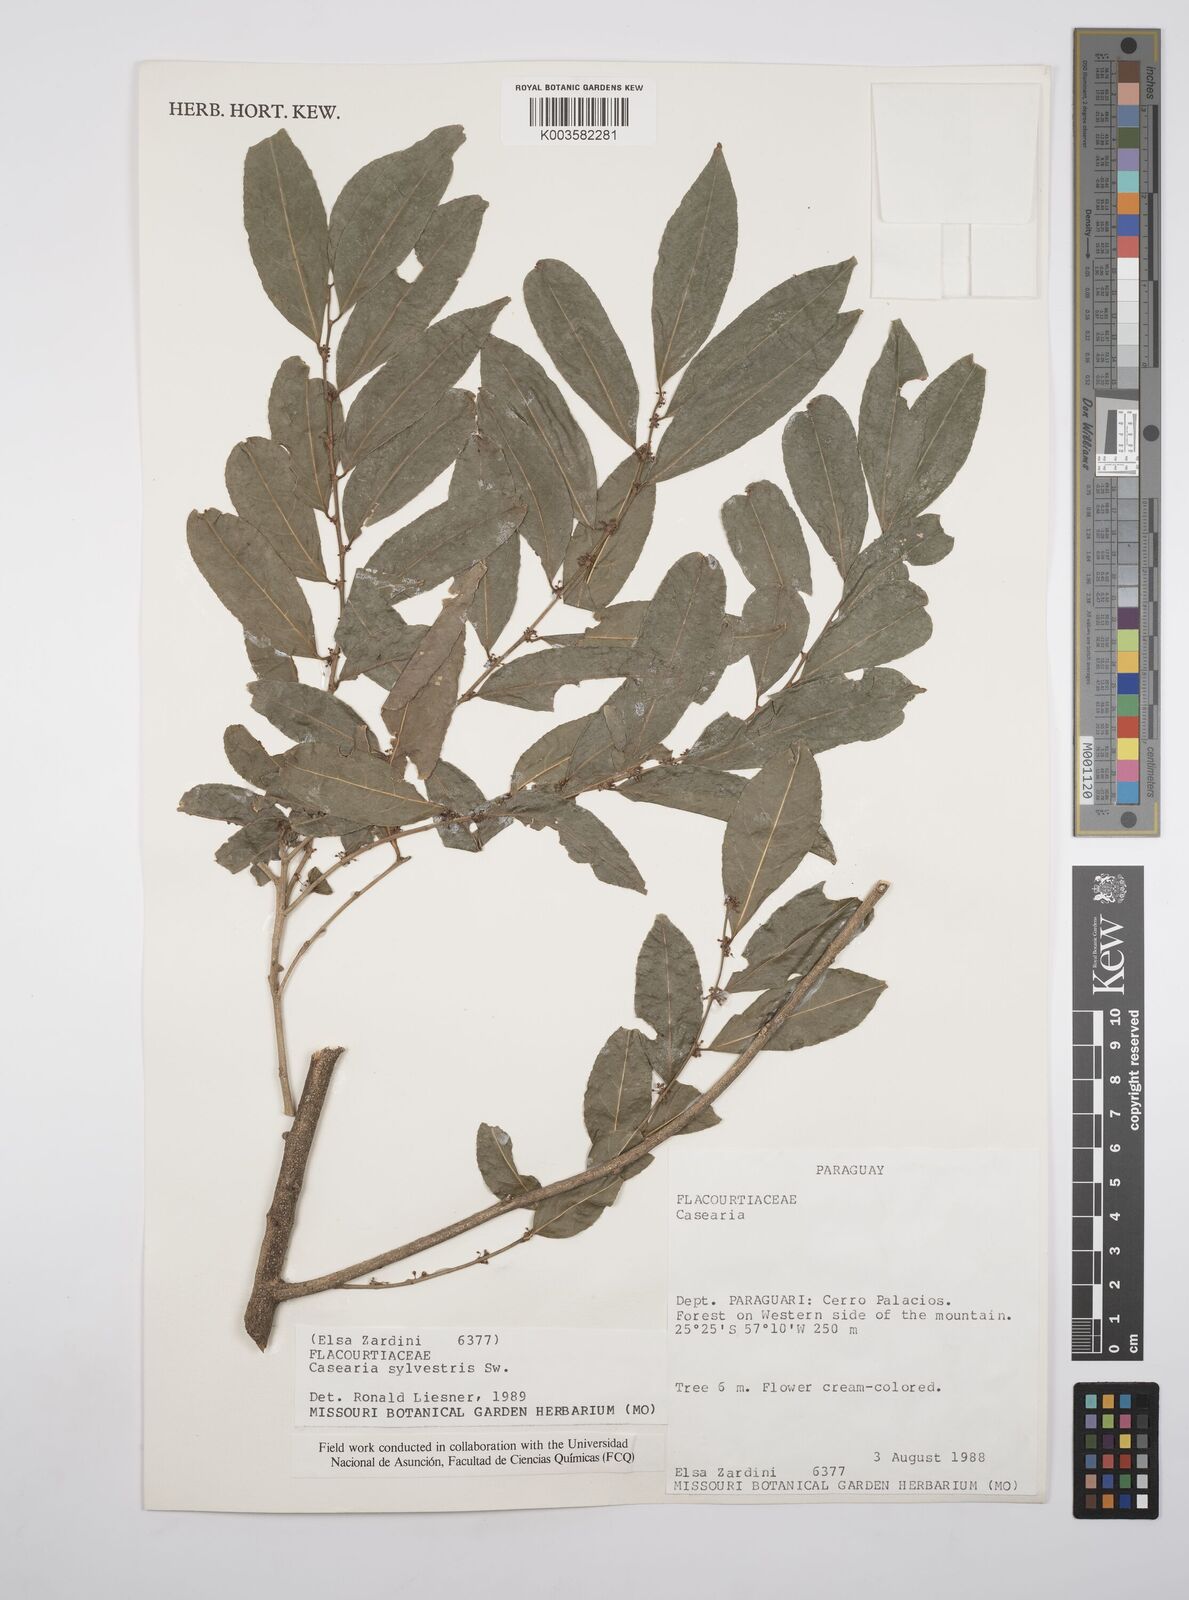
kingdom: Plantae
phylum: Tracheophyta
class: Magnoliopsida
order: Malpighiales
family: Salicaceae
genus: Casearia
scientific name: Casearia sylvestris
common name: Wild sage
